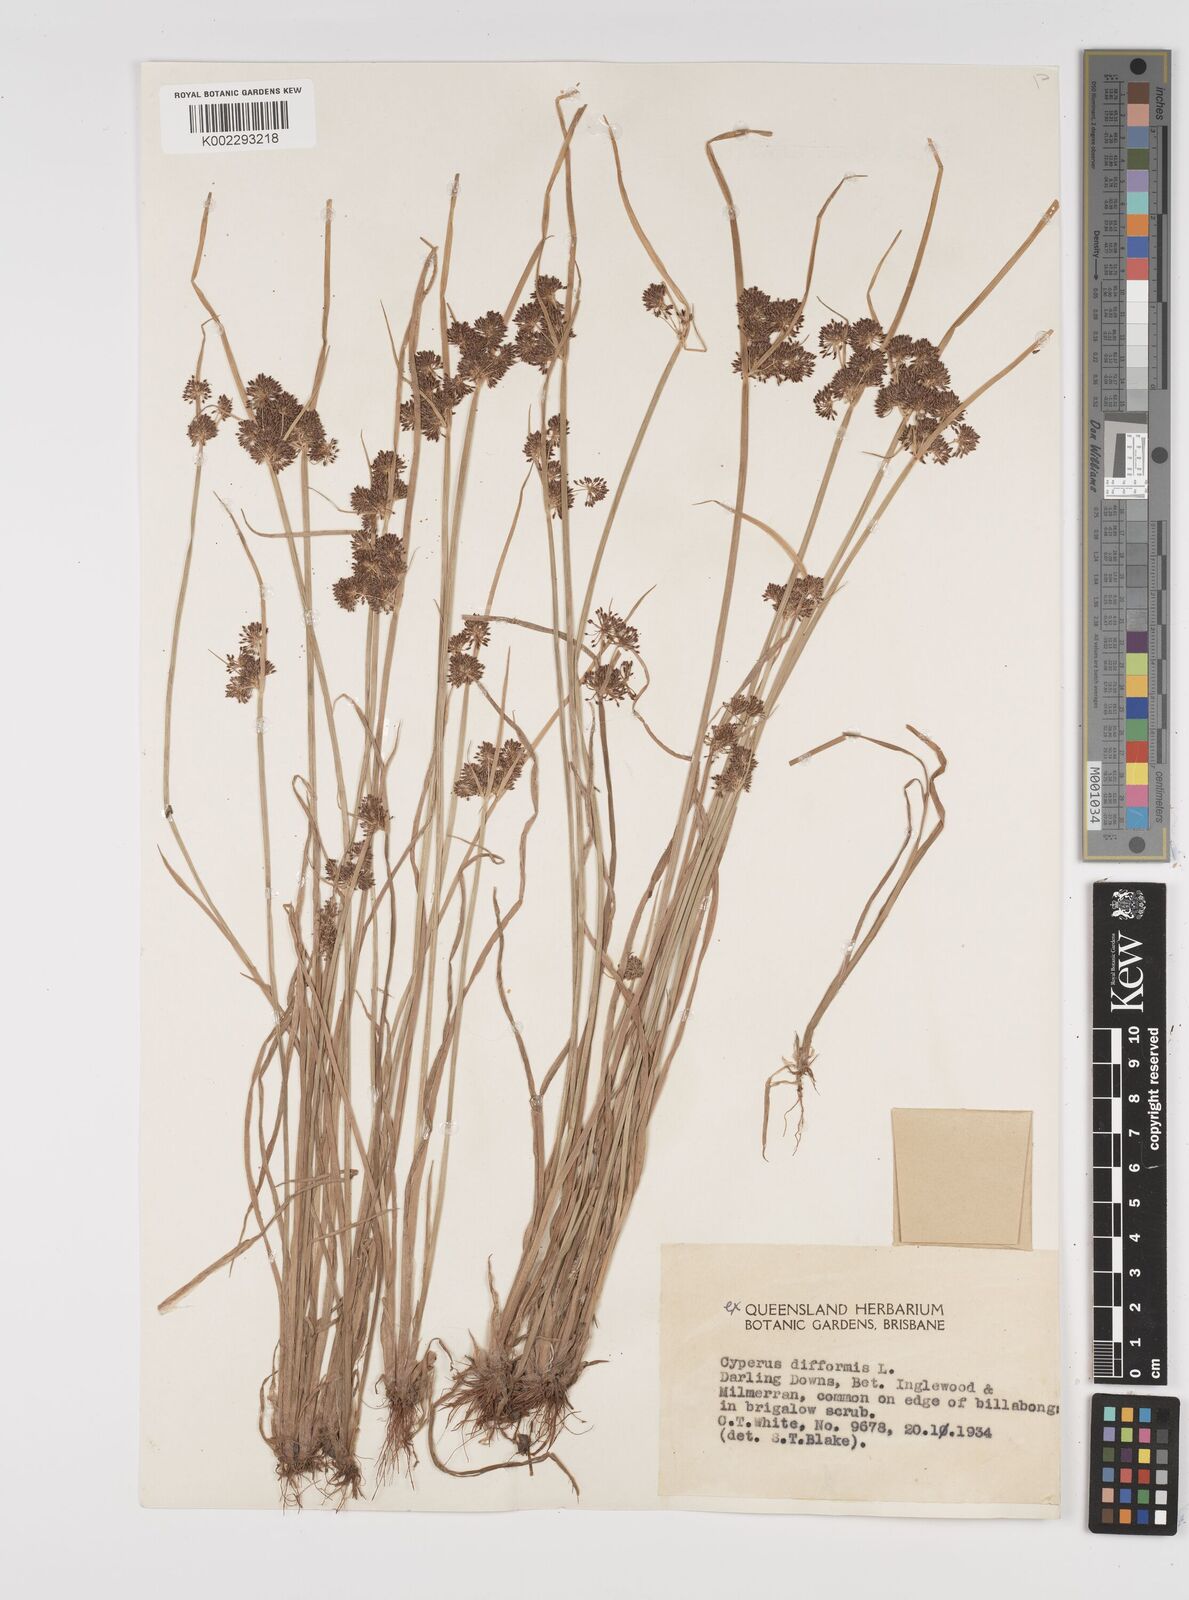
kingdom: Plantae
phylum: Tracheophyta
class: Liliopsida
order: Poales
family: Cyperaceae
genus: Cyperus
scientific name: Cyperus difformis
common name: Variable flatsedge
